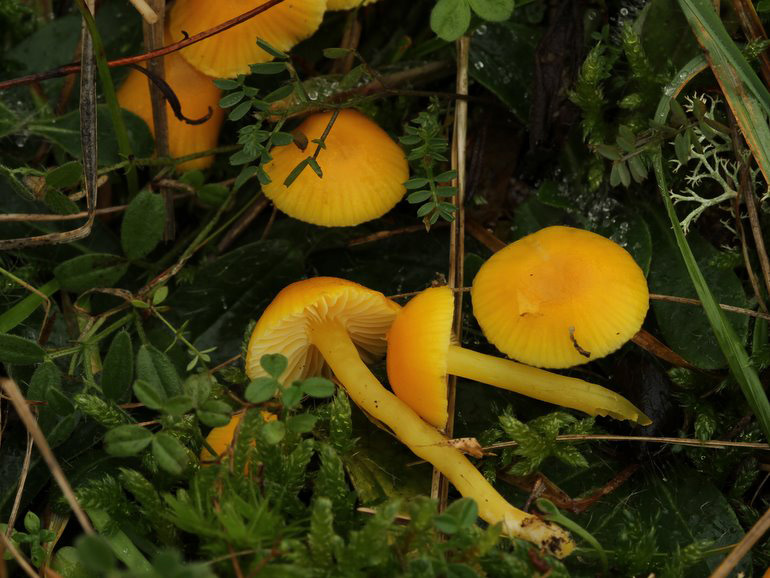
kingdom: Fungi
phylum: Basidiomycota
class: Agaricomycetes
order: Agaricales
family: Hygrophoraceae
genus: Hygrocybe
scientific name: Hygrocybe ceracea
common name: voksgul vokshat
